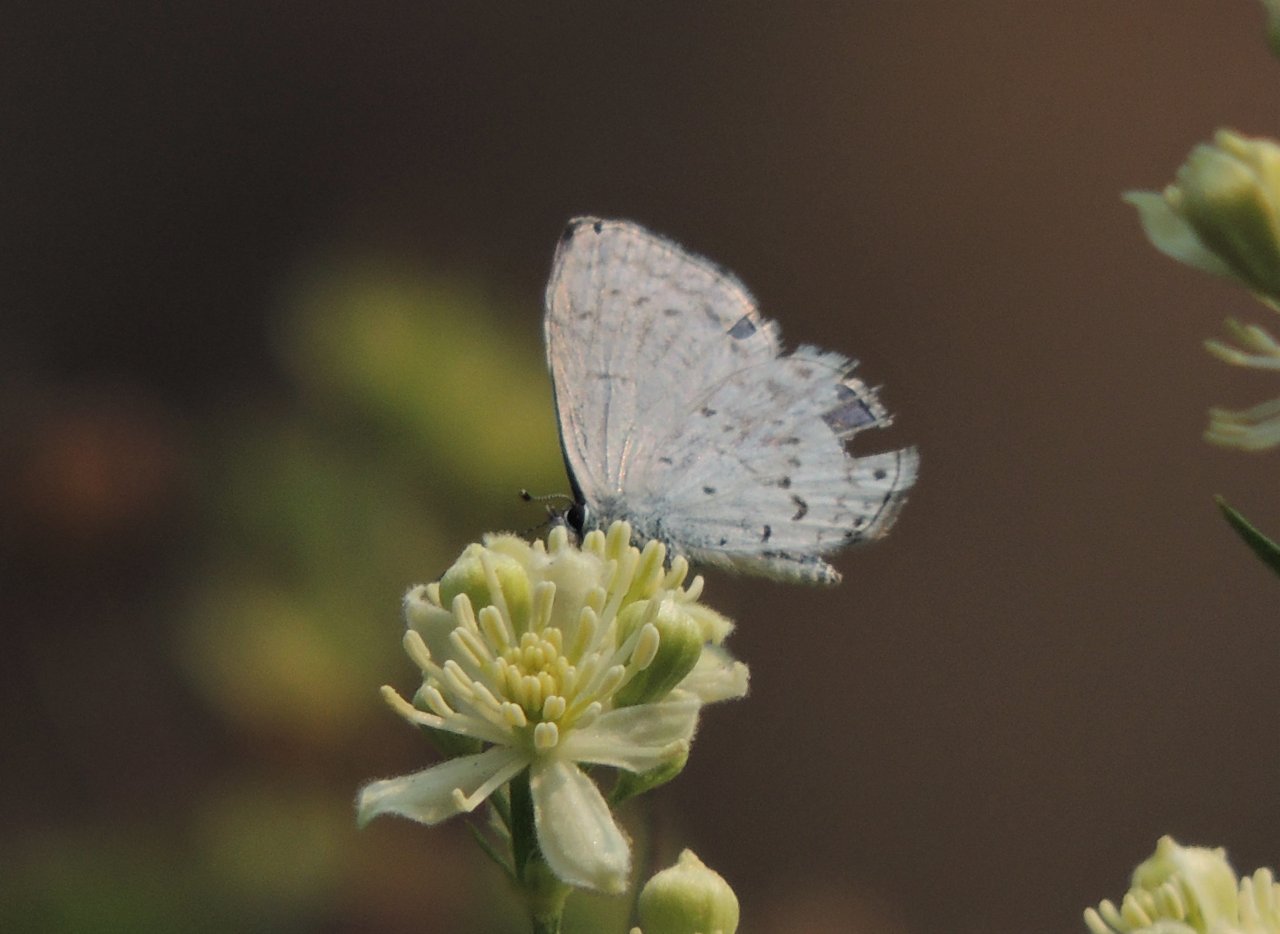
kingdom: Animalia
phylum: Arthropoda
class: Insecta
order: Lepidoptera
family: Lycaenidae
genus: Celastrina
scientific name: Celastrina ladon
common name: Echo Azure
